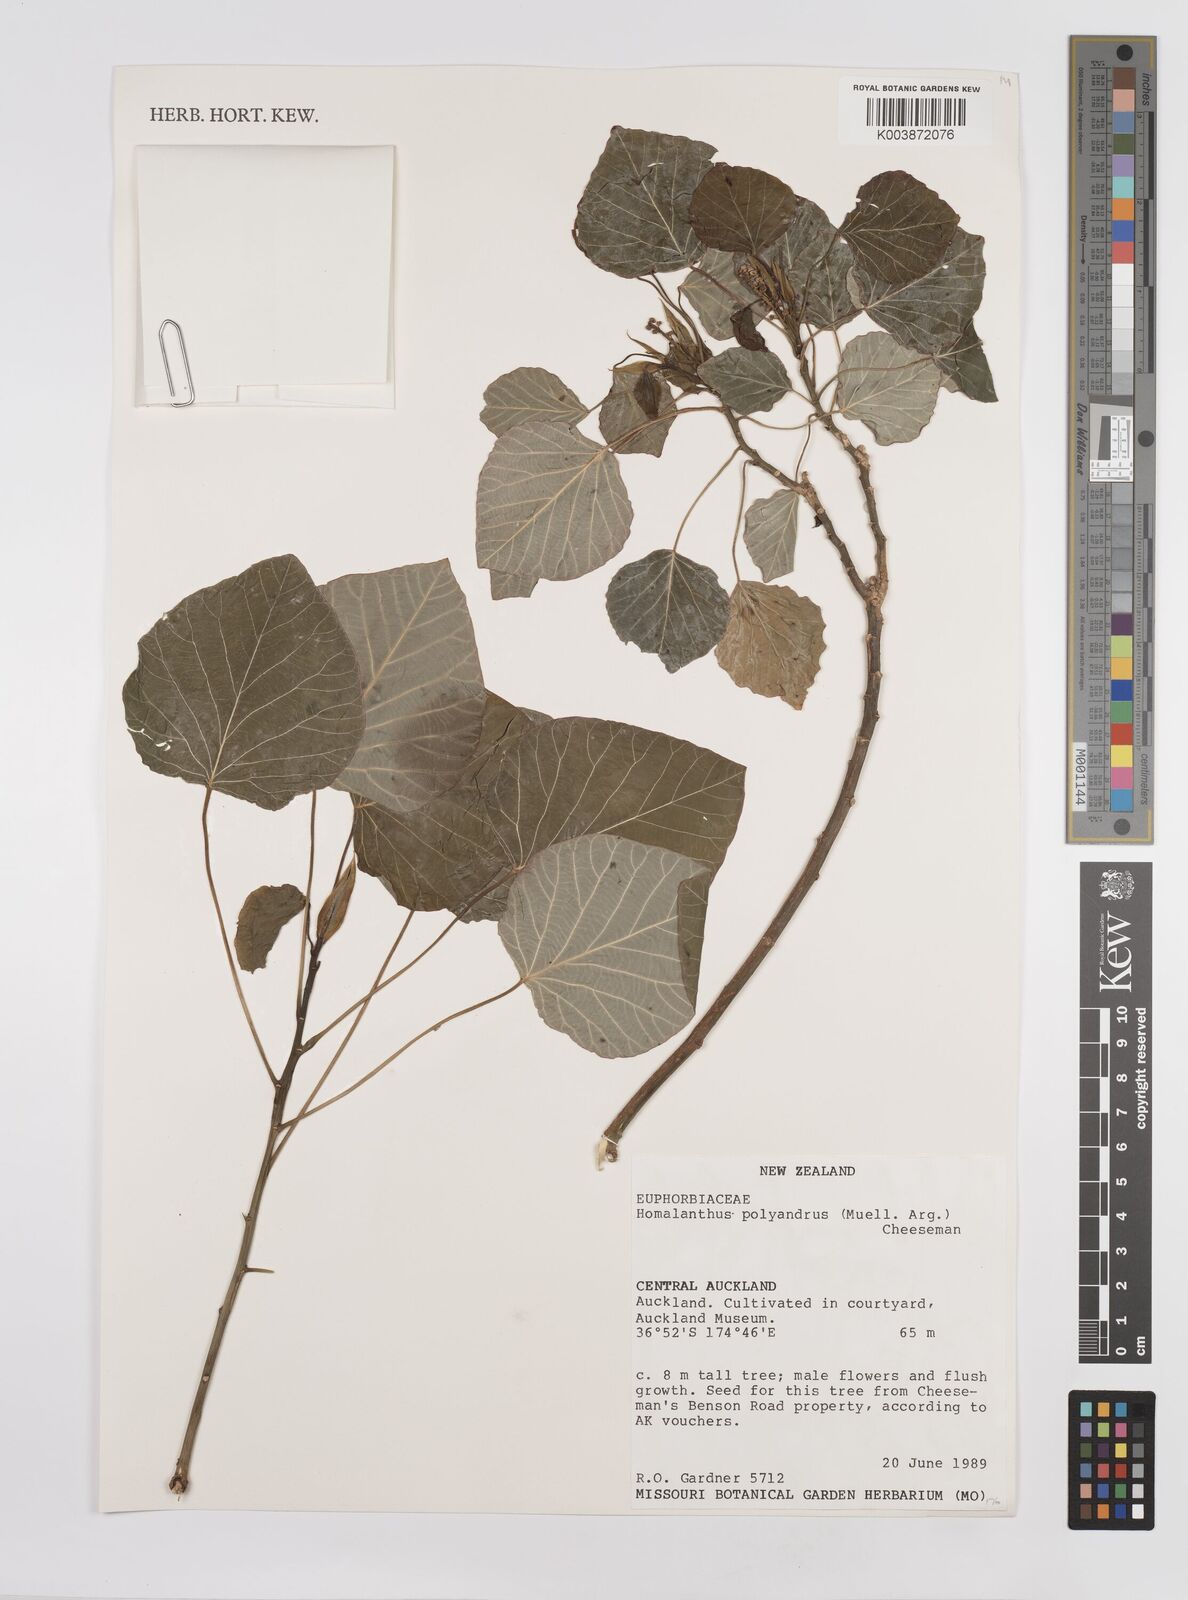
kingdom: Plantae
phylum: Tracheophyta
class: Magnoliopsida
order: Malpighiales
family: Euphorbiaceae
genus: Homalanthus
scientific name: Homalanthus polyandrus
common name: Kermadec poplar
